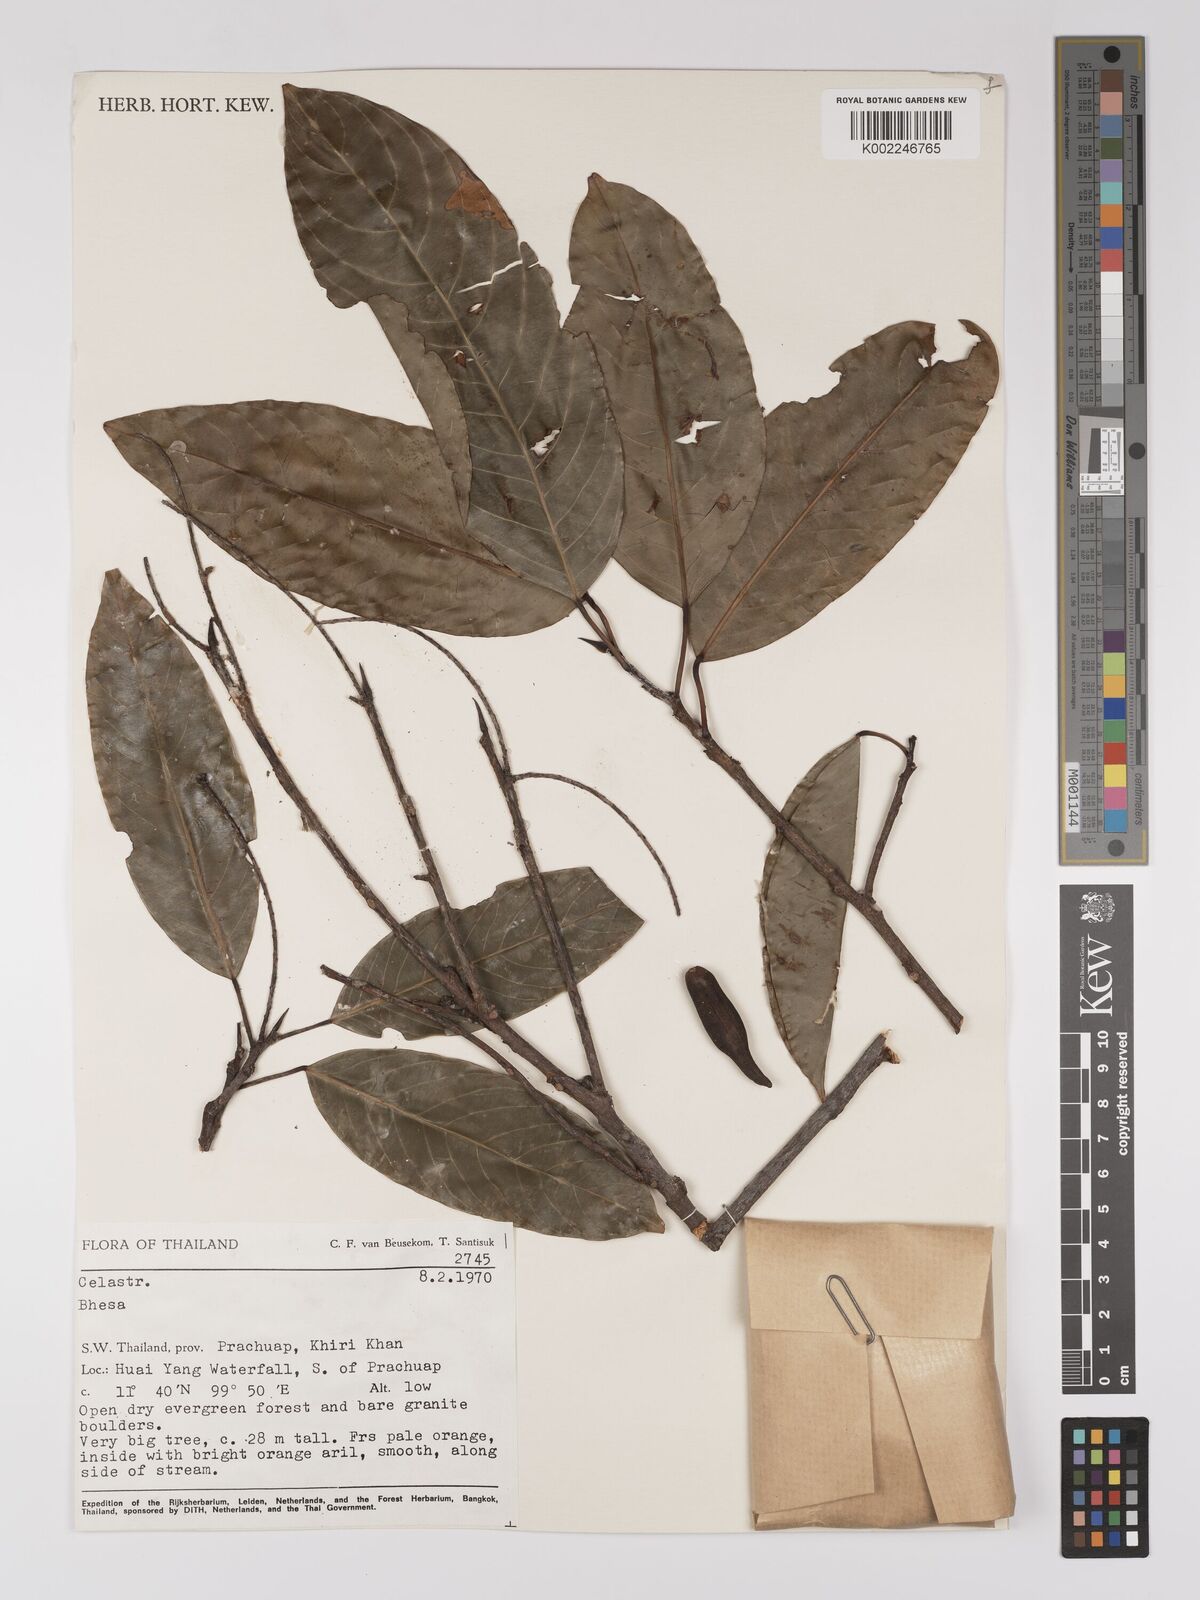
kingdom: Plantae
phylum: Tracheophyta
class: Magnoliopsida
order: Malpighiales
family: Centroplacaceae
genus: Bhesa
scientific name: Bhesa robusta
